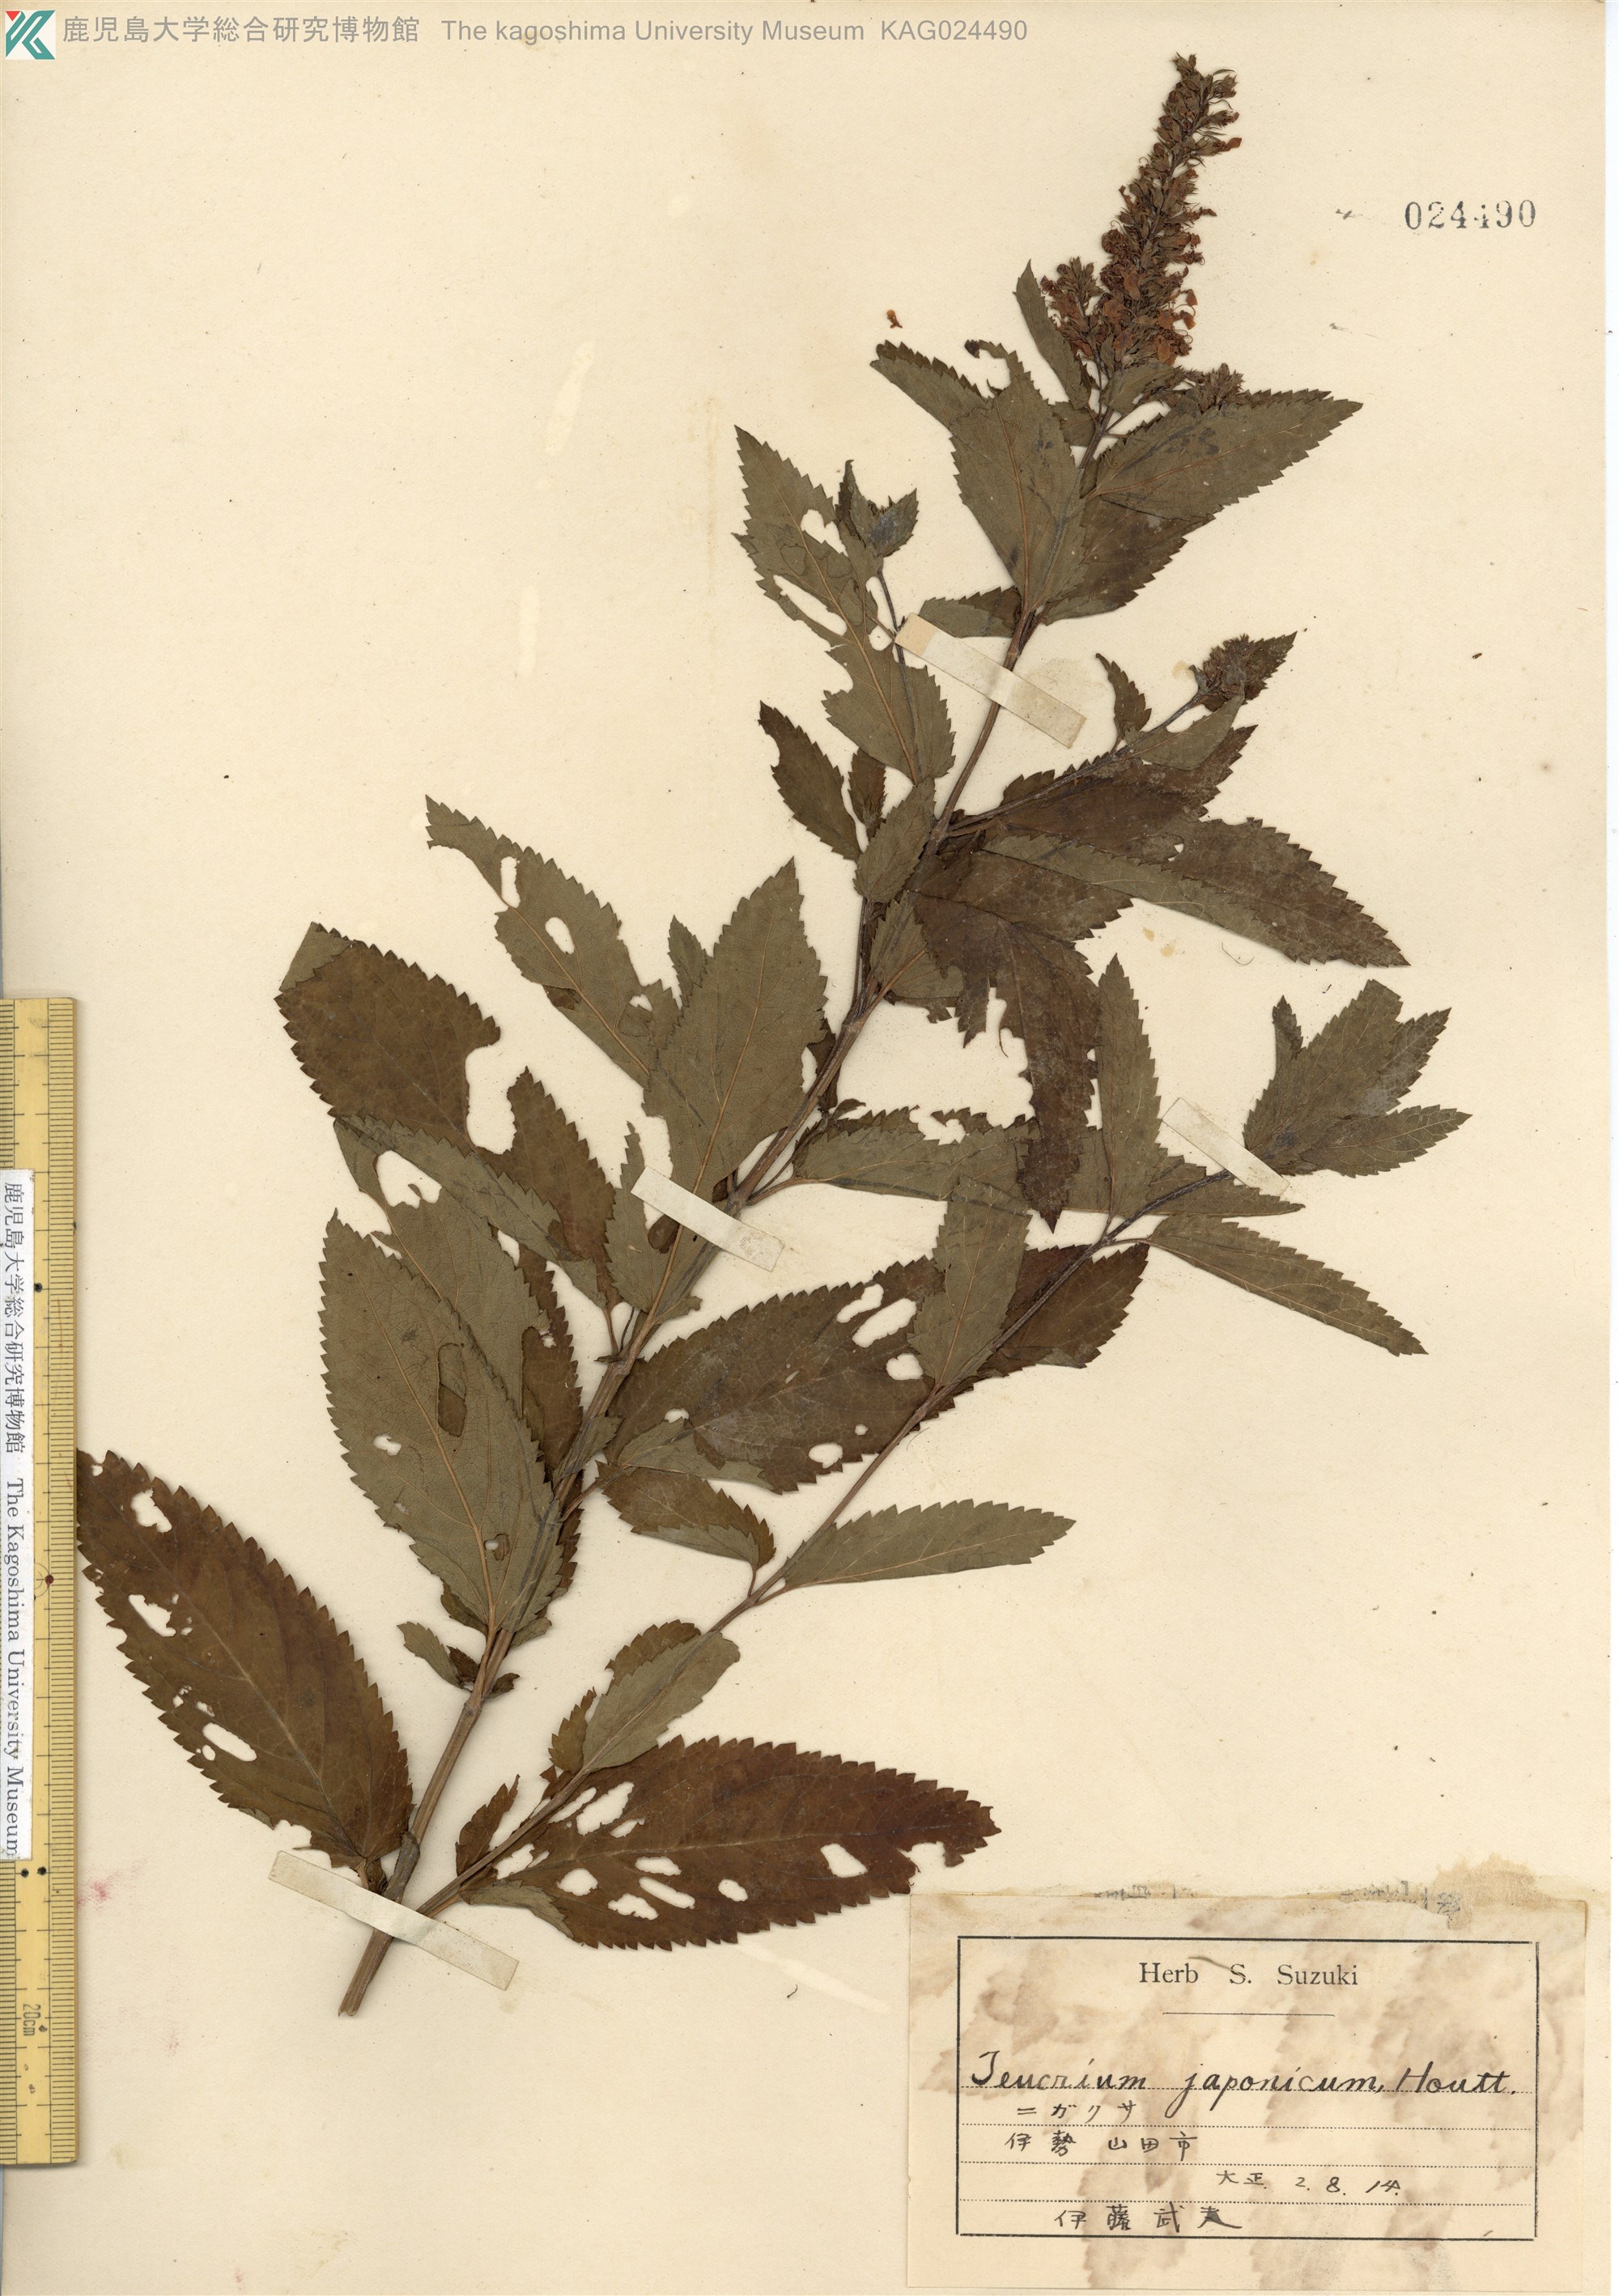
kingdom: Plantae
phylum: Tracheophyta
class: Magnoliopsida
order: Lamiales
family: Lamiaceae
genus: Teucrium
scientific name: Teucrium japonicum
